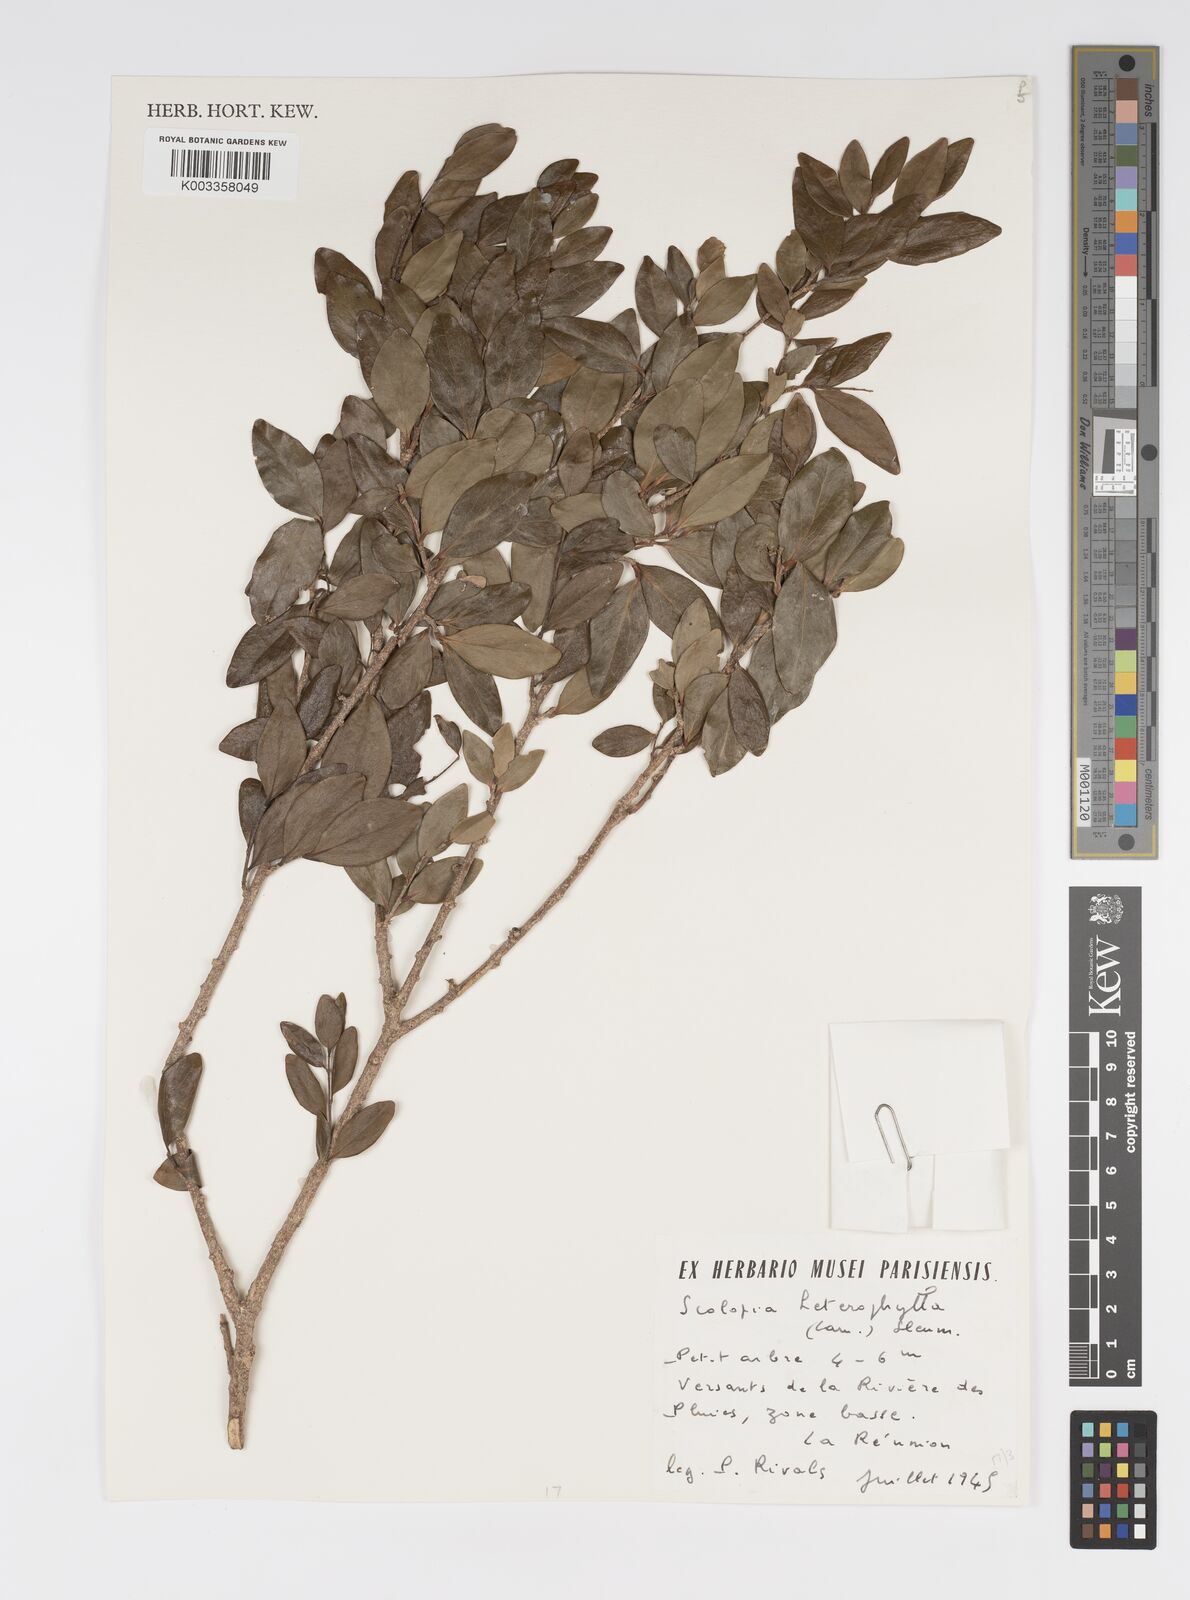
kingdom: Plantae
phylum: Tracheophyta
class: Magnoliopsida
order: Malpighiales
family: Salicaceae
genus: Scolopia
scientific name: Scolopia heterophylla
